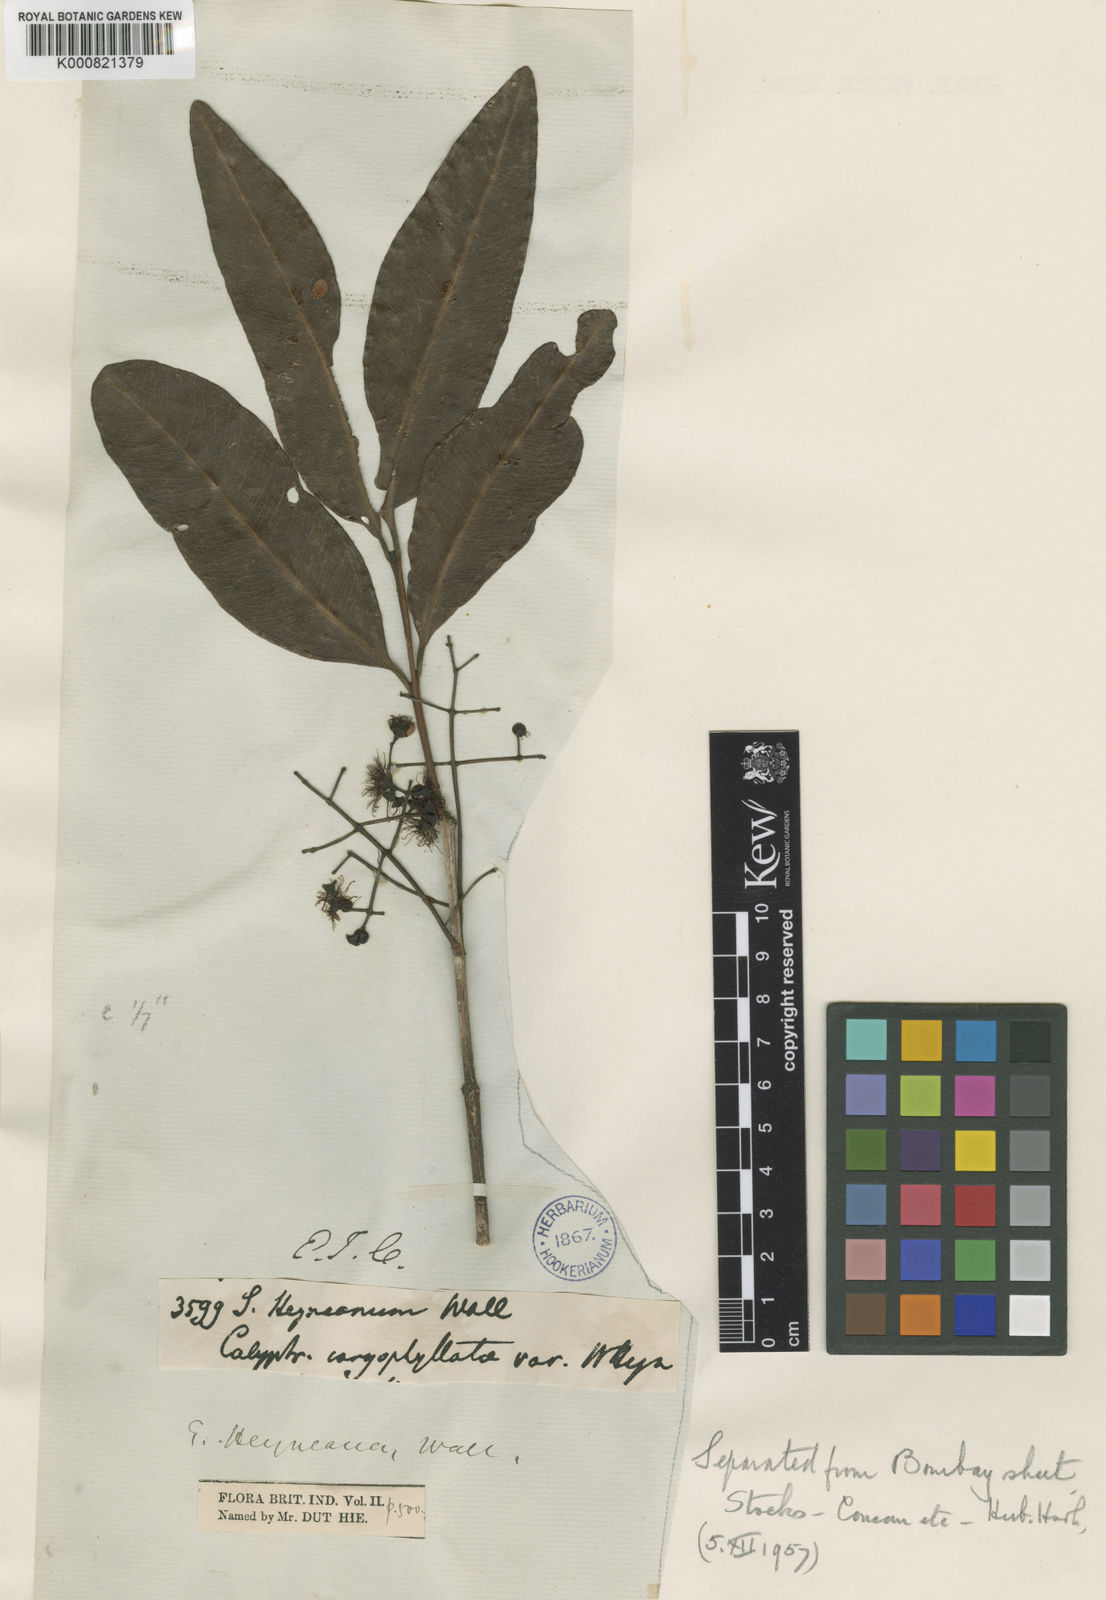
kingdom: Plantae
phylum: Tracheophyta
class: Magnoliopsida
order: Myrtales
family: Myrtaceae
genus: Syzygium
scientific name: Syzygium
